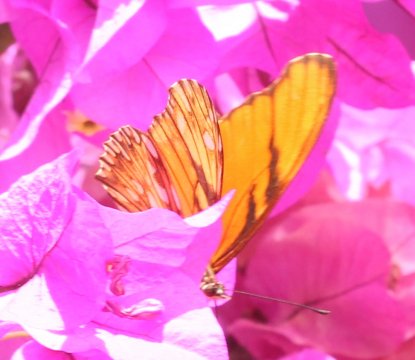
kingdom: Animalia
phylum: Arthropoda
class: Insecta
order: Lepidoptera
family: Nymphalidae
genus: Dione
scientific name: Dione juno
